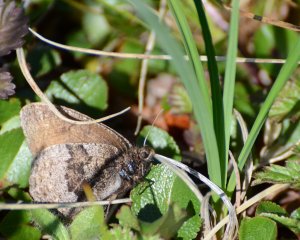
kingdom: Animalia
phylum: Arthropoda
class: Insecta
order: Lepidoptera
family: Nymphalidae
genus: Oeneis
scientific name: Oeneis bore
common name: Polixenes Arctic
